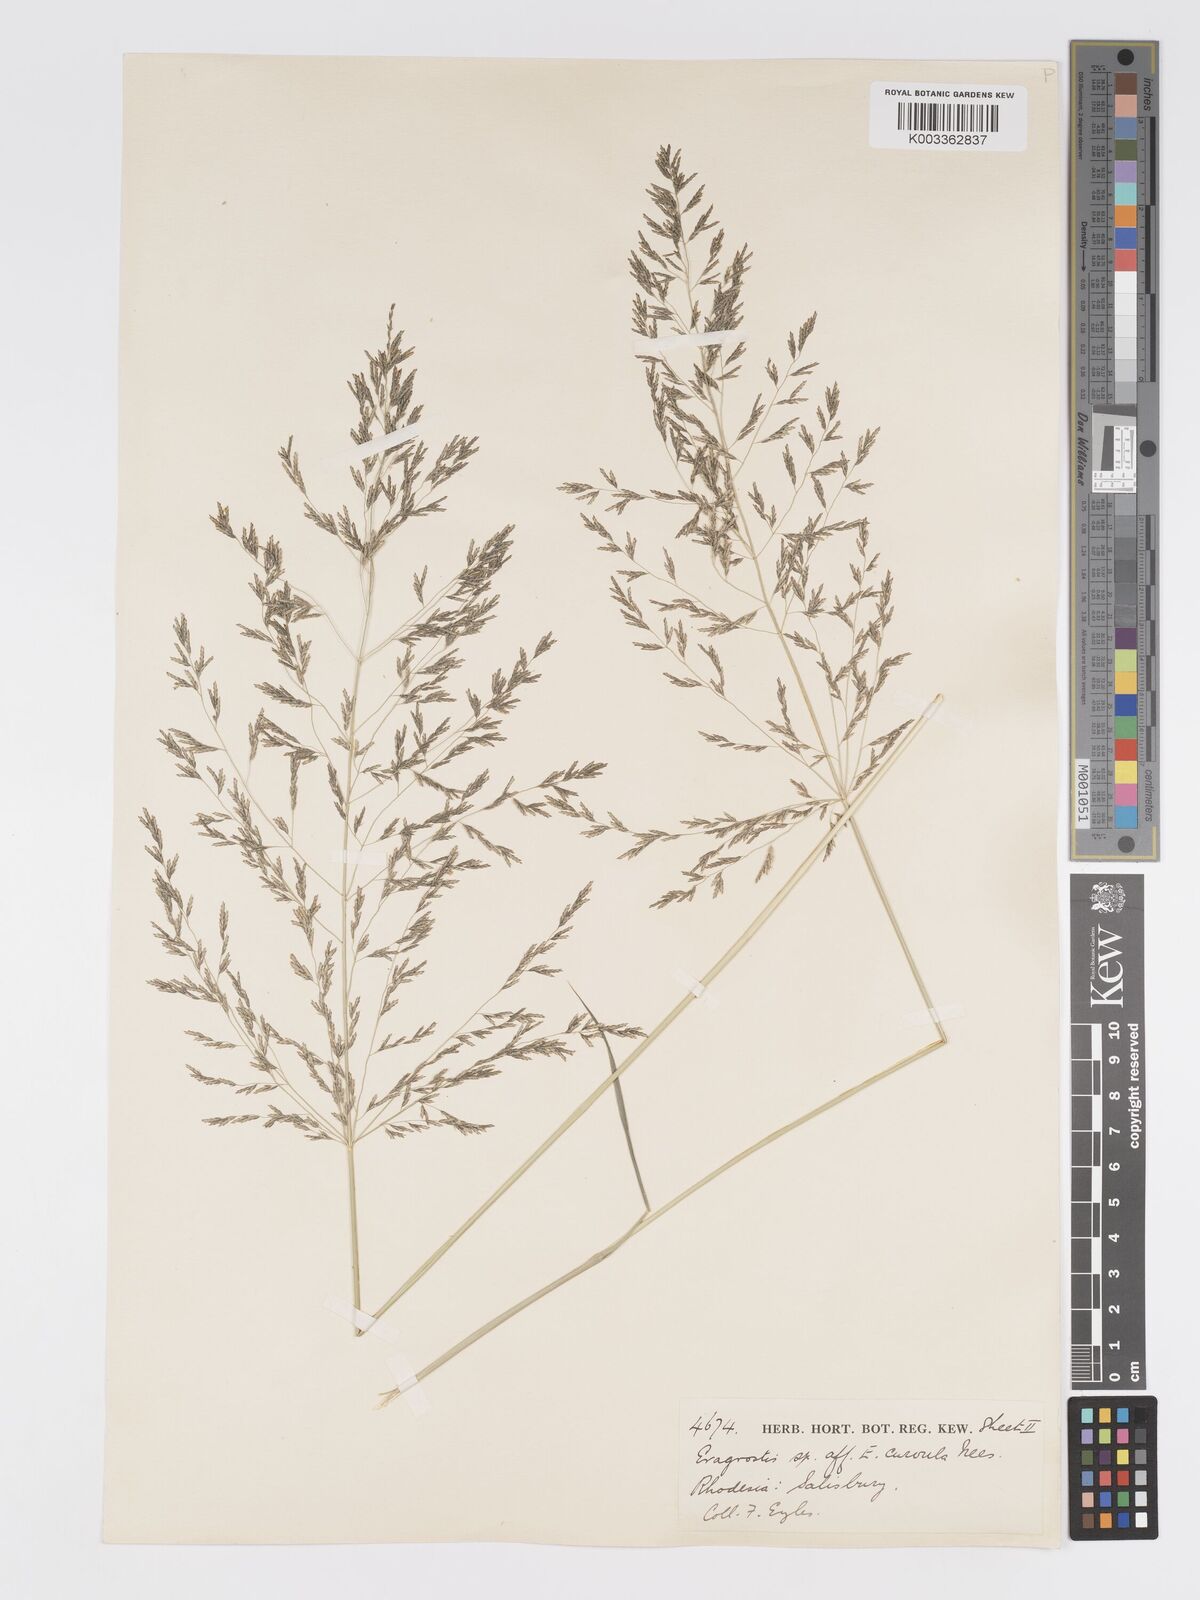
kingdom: Plantae
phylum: Tracheophyta
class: Liliopsida
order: Poales
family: Poaceae
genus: Eragrostis
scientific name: Eragrostis cylindriflora
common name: Cylinderflower lovegrass
